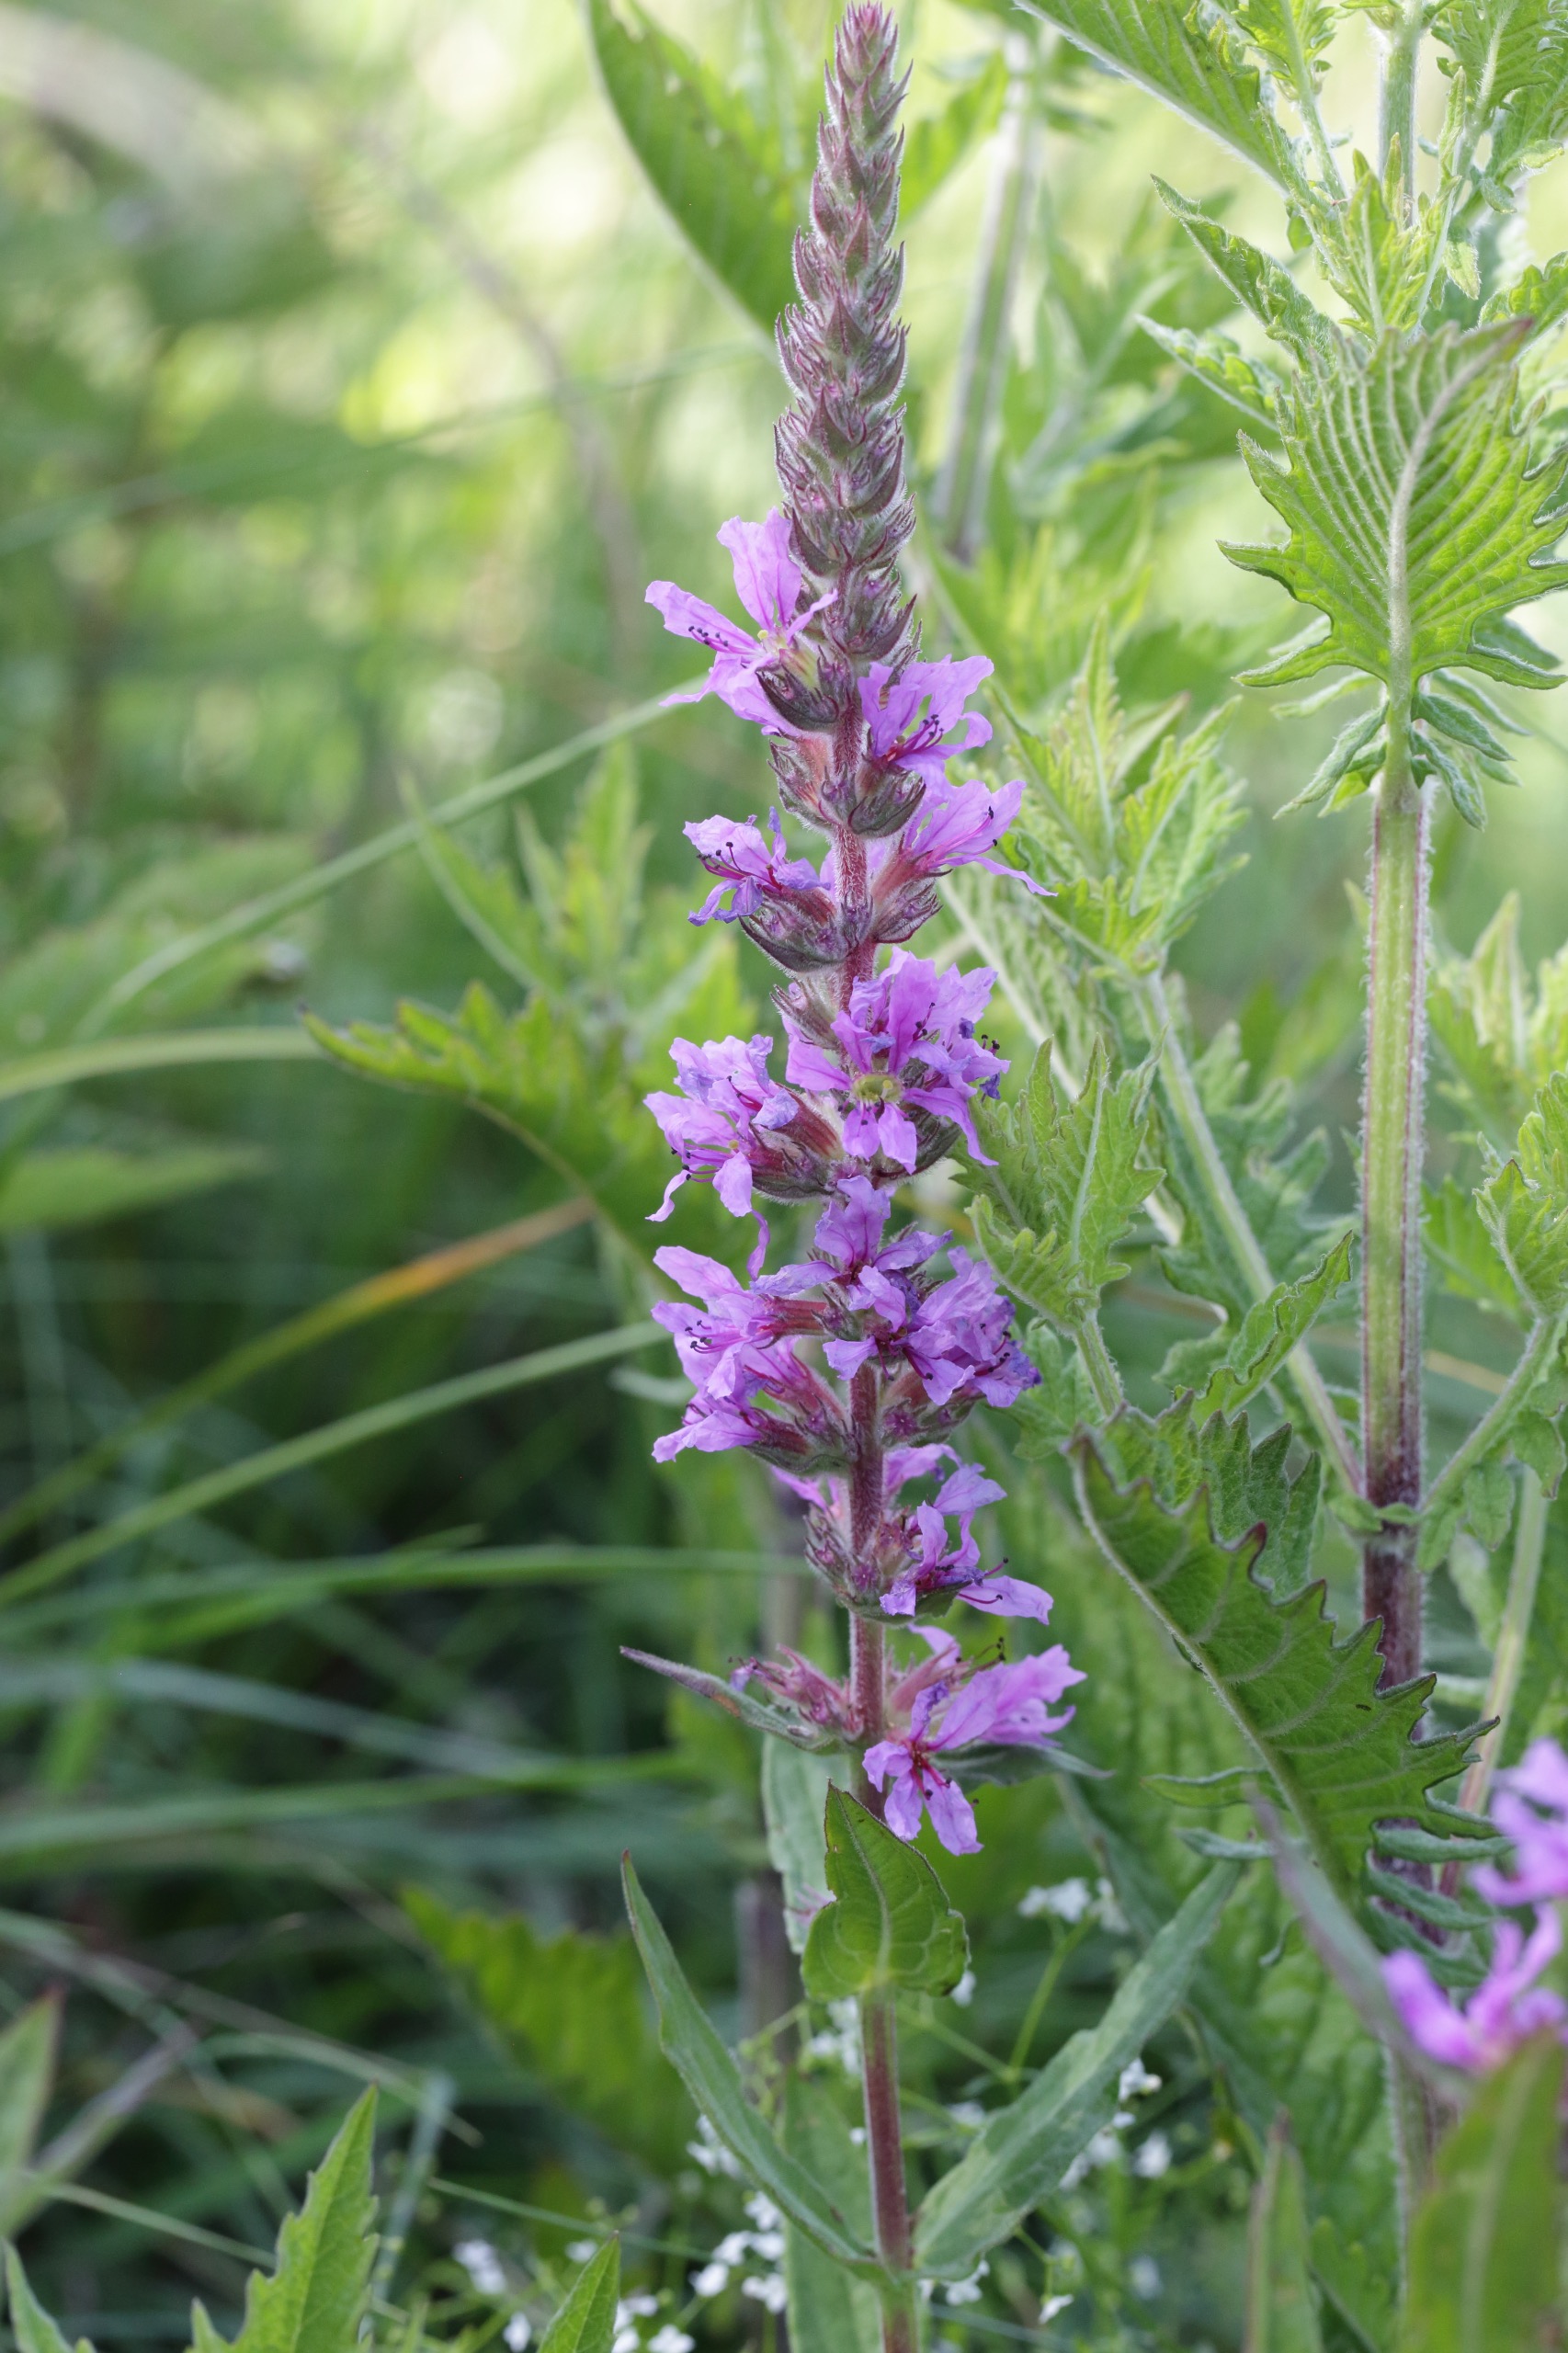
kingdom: Plantae
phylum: Tracheophyta
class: Magnoliopsida
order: Myrtales
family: Lythraceae
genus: Lythrum
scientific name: Lythrum salicaria
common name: Kattehale
